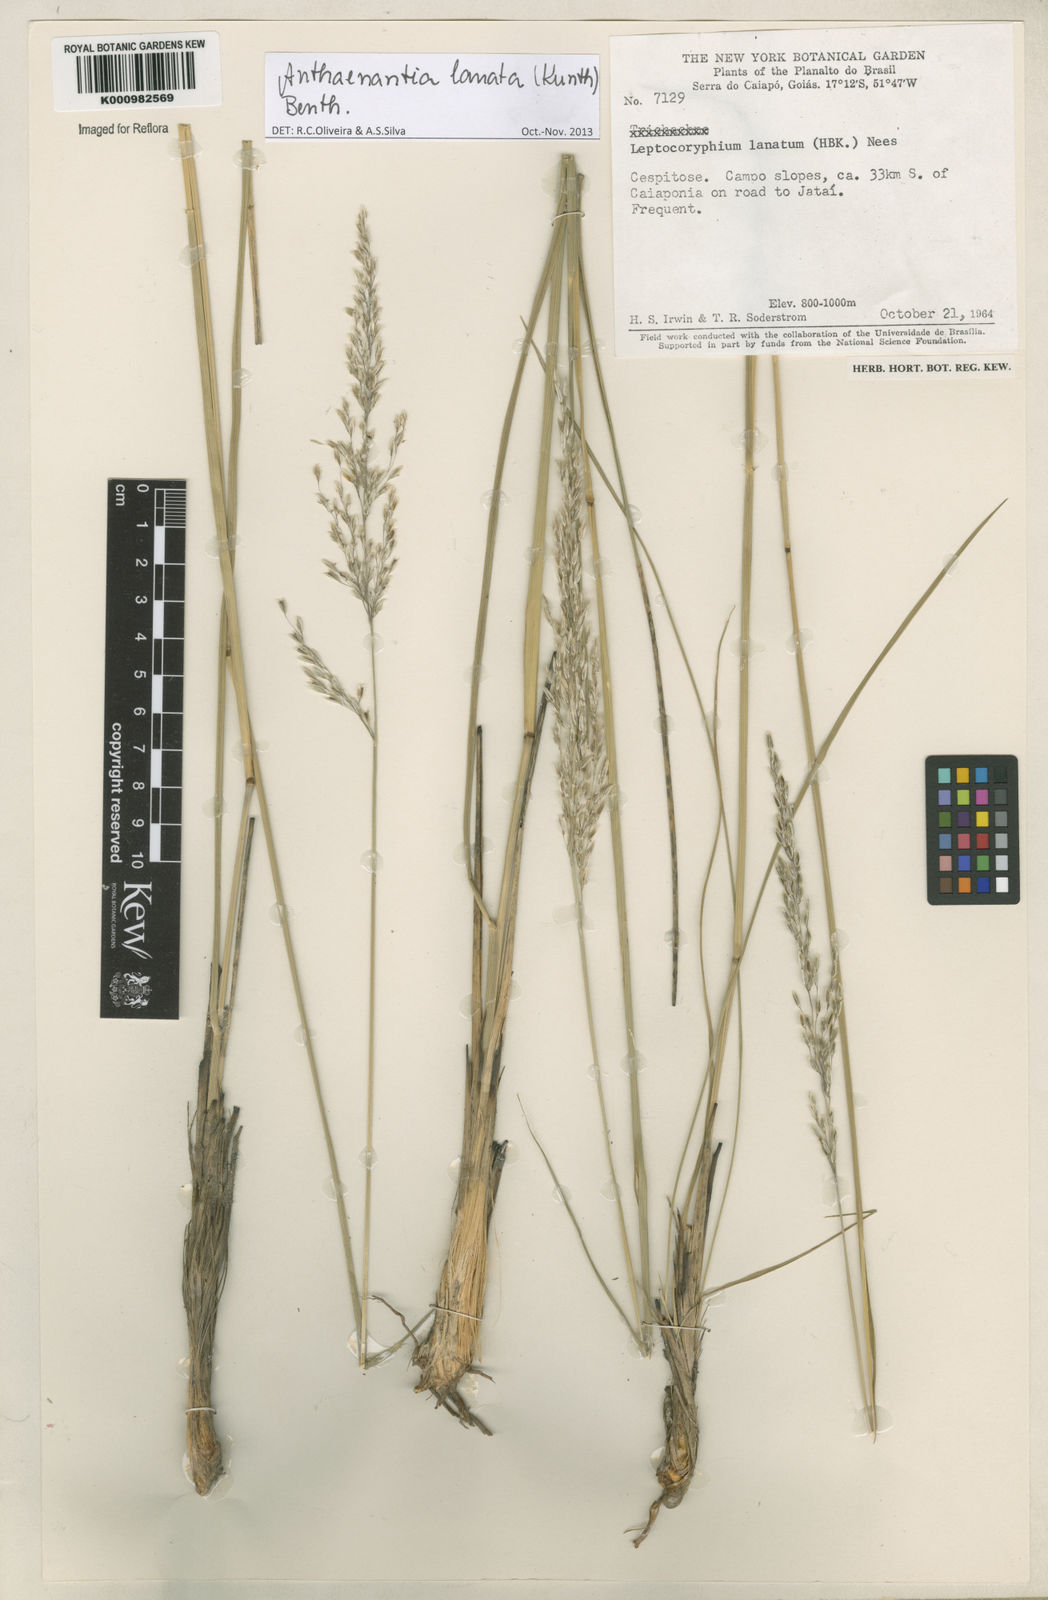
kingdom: Plantae
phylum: Tracheophyta
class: Liliopsida
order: Poales
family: Poaceae
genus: Anthenantia
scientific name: Anthenantia lanata
